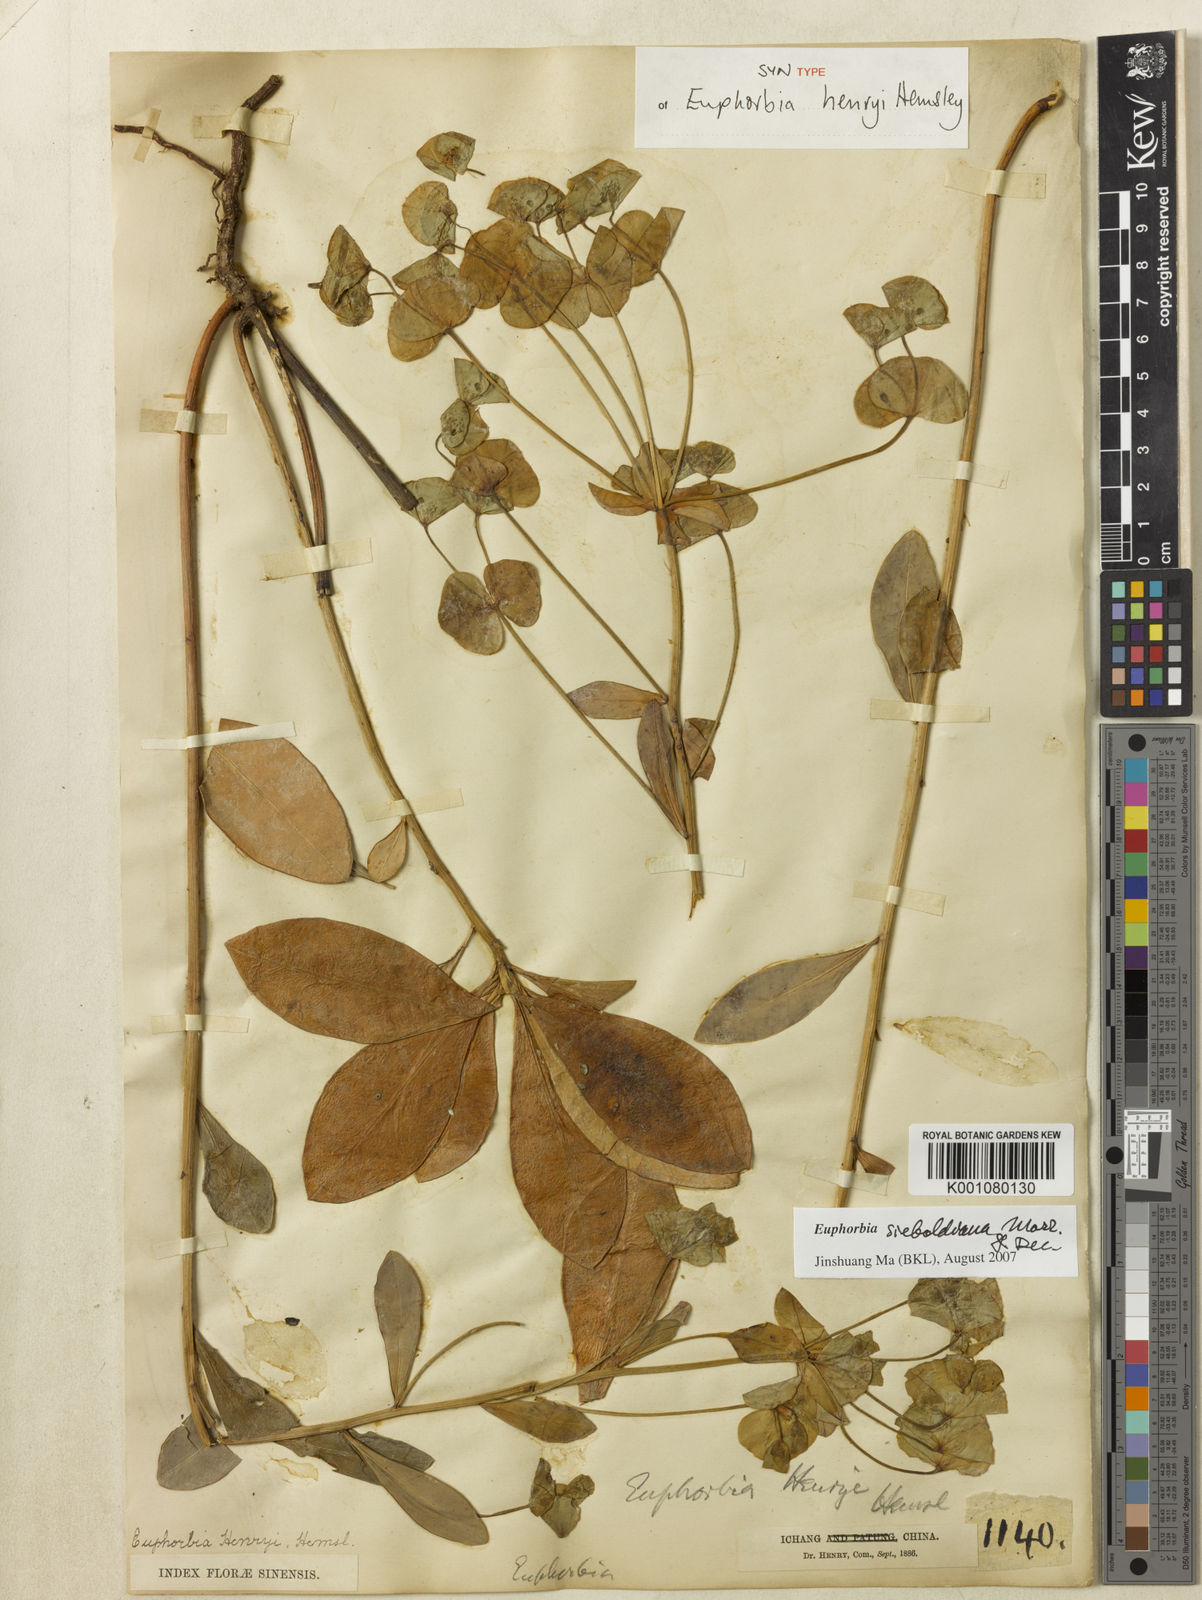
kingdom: Plantae
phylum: Tracheophyta
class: Magnoliopsida
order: Malpighiales
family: Euphorbiaceae
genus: Euphorbia
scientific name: Euphorbia sieboldiana
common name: Siebold's spurge
